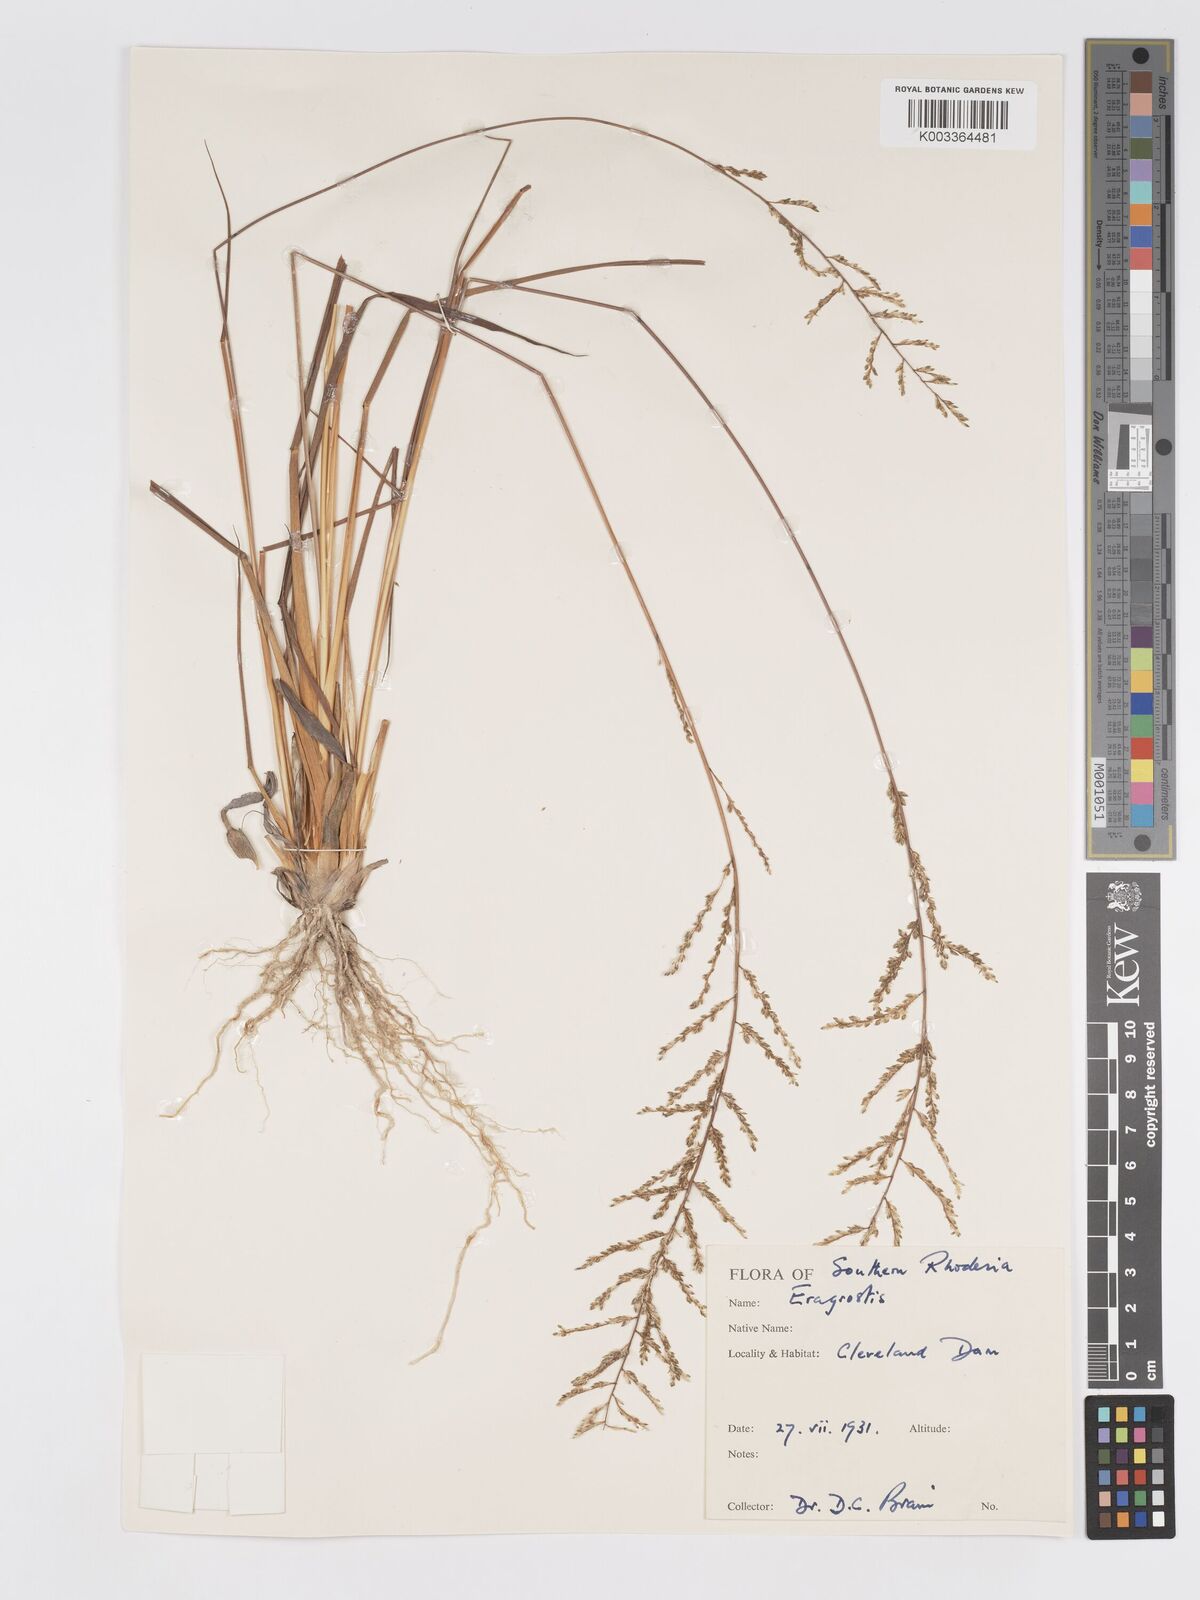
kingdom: Plantae
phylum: Tracheophyta
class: Liliopsida
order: Poales
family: Poaceae
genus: Eragrostis
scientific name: Eragrostis sclerantha
